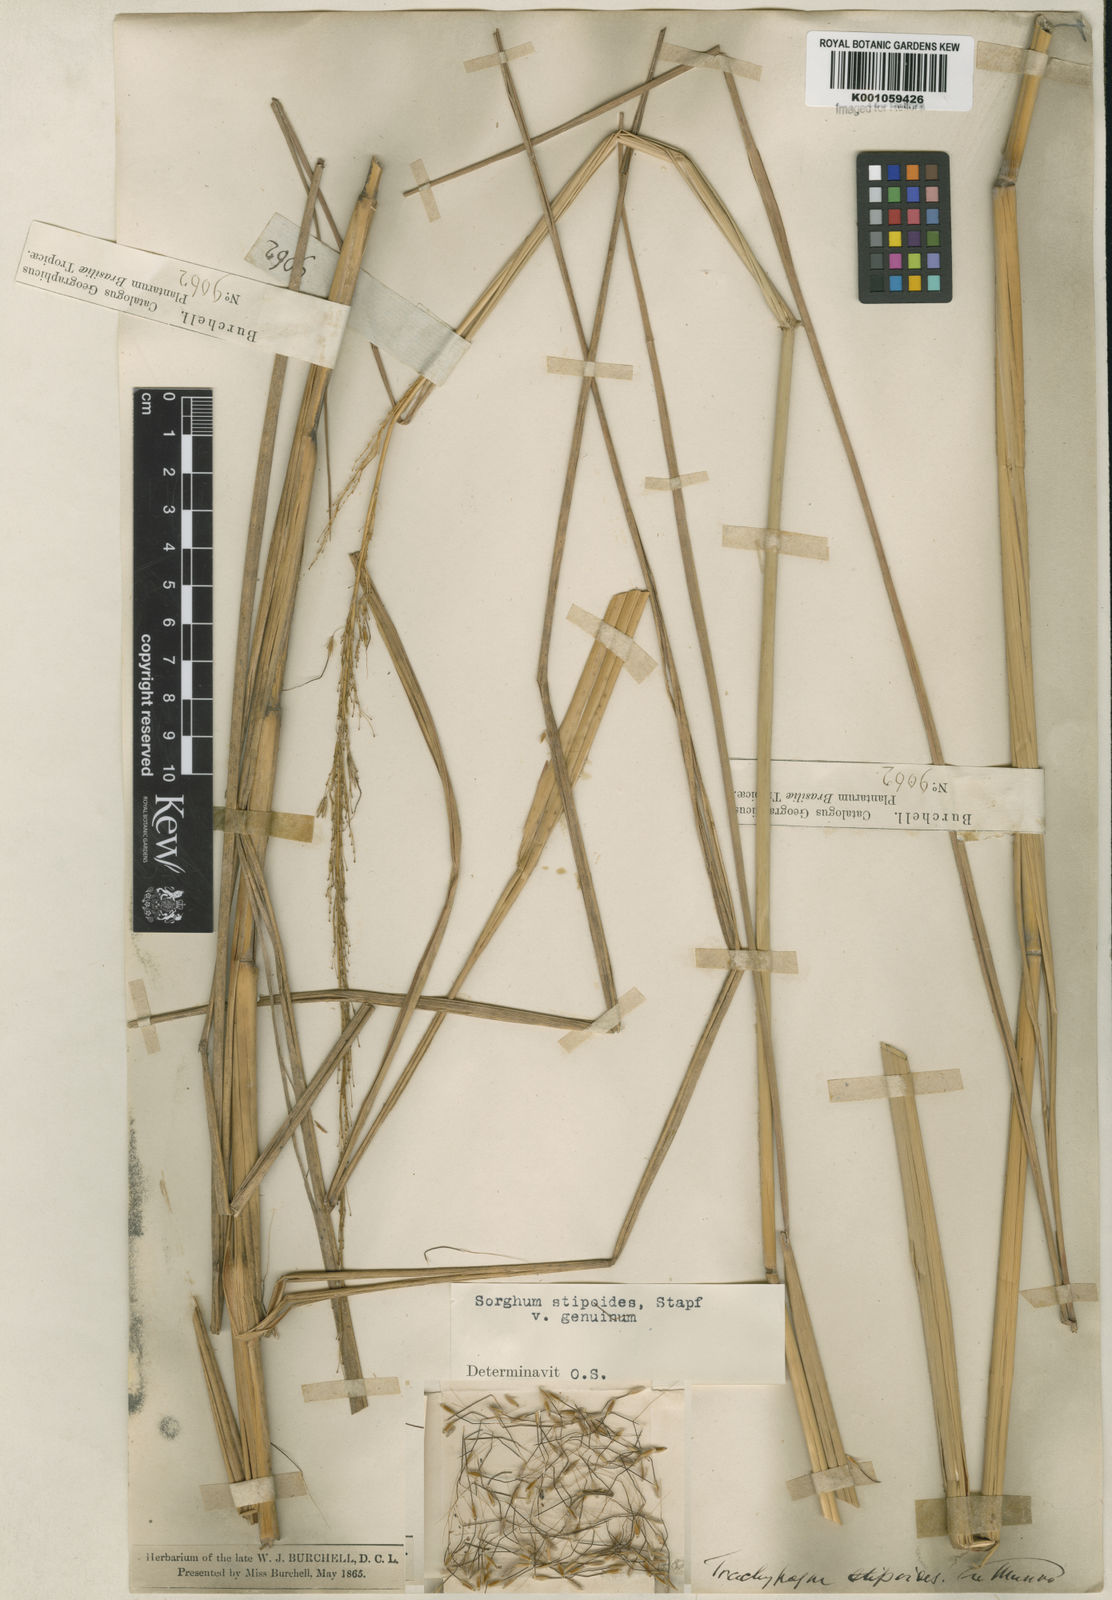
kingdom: Plantae
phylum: Tracheophyta
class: Liliopsida
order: Poales
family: Poaceae
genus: Sorghastrum
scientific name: Sorghastrum stipoides
